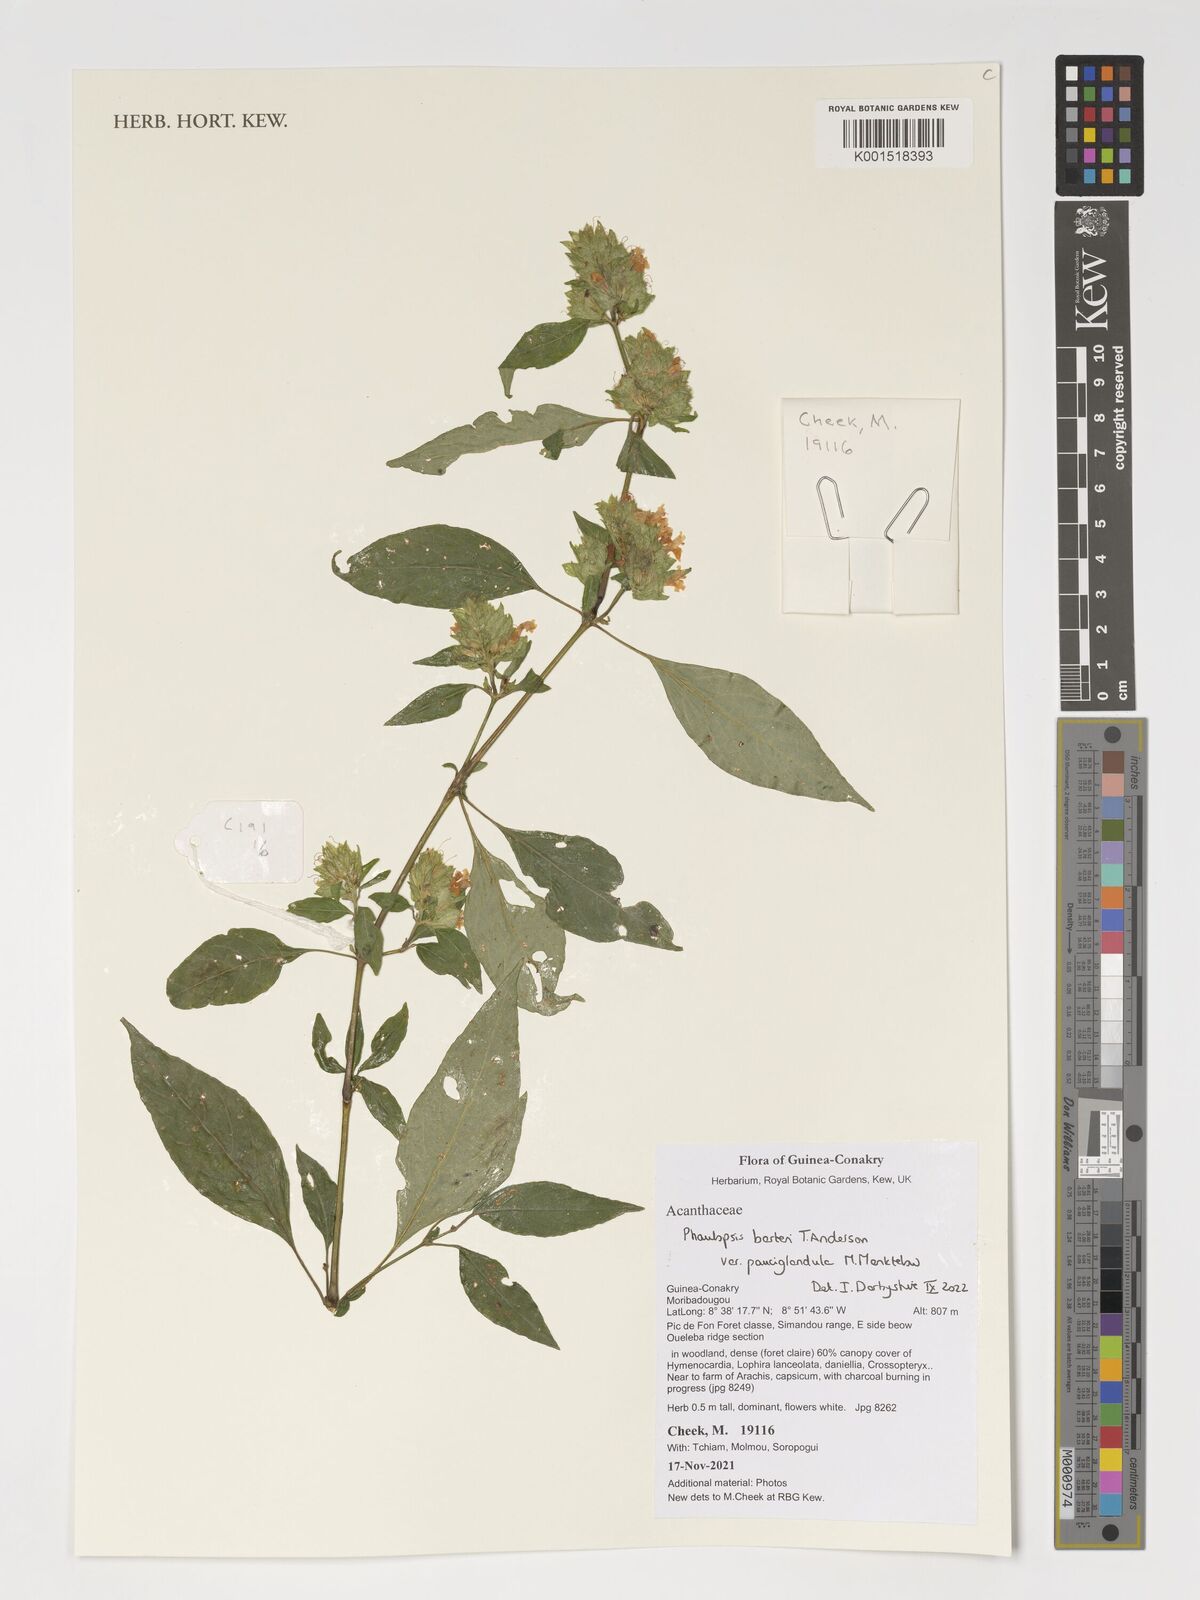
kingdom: Plantae
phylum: Tracheophyta
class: Magnoliopsida
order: Lamiales
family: Acanthaceae
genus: Phaulopsis
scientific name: Phaulopsis barteri
